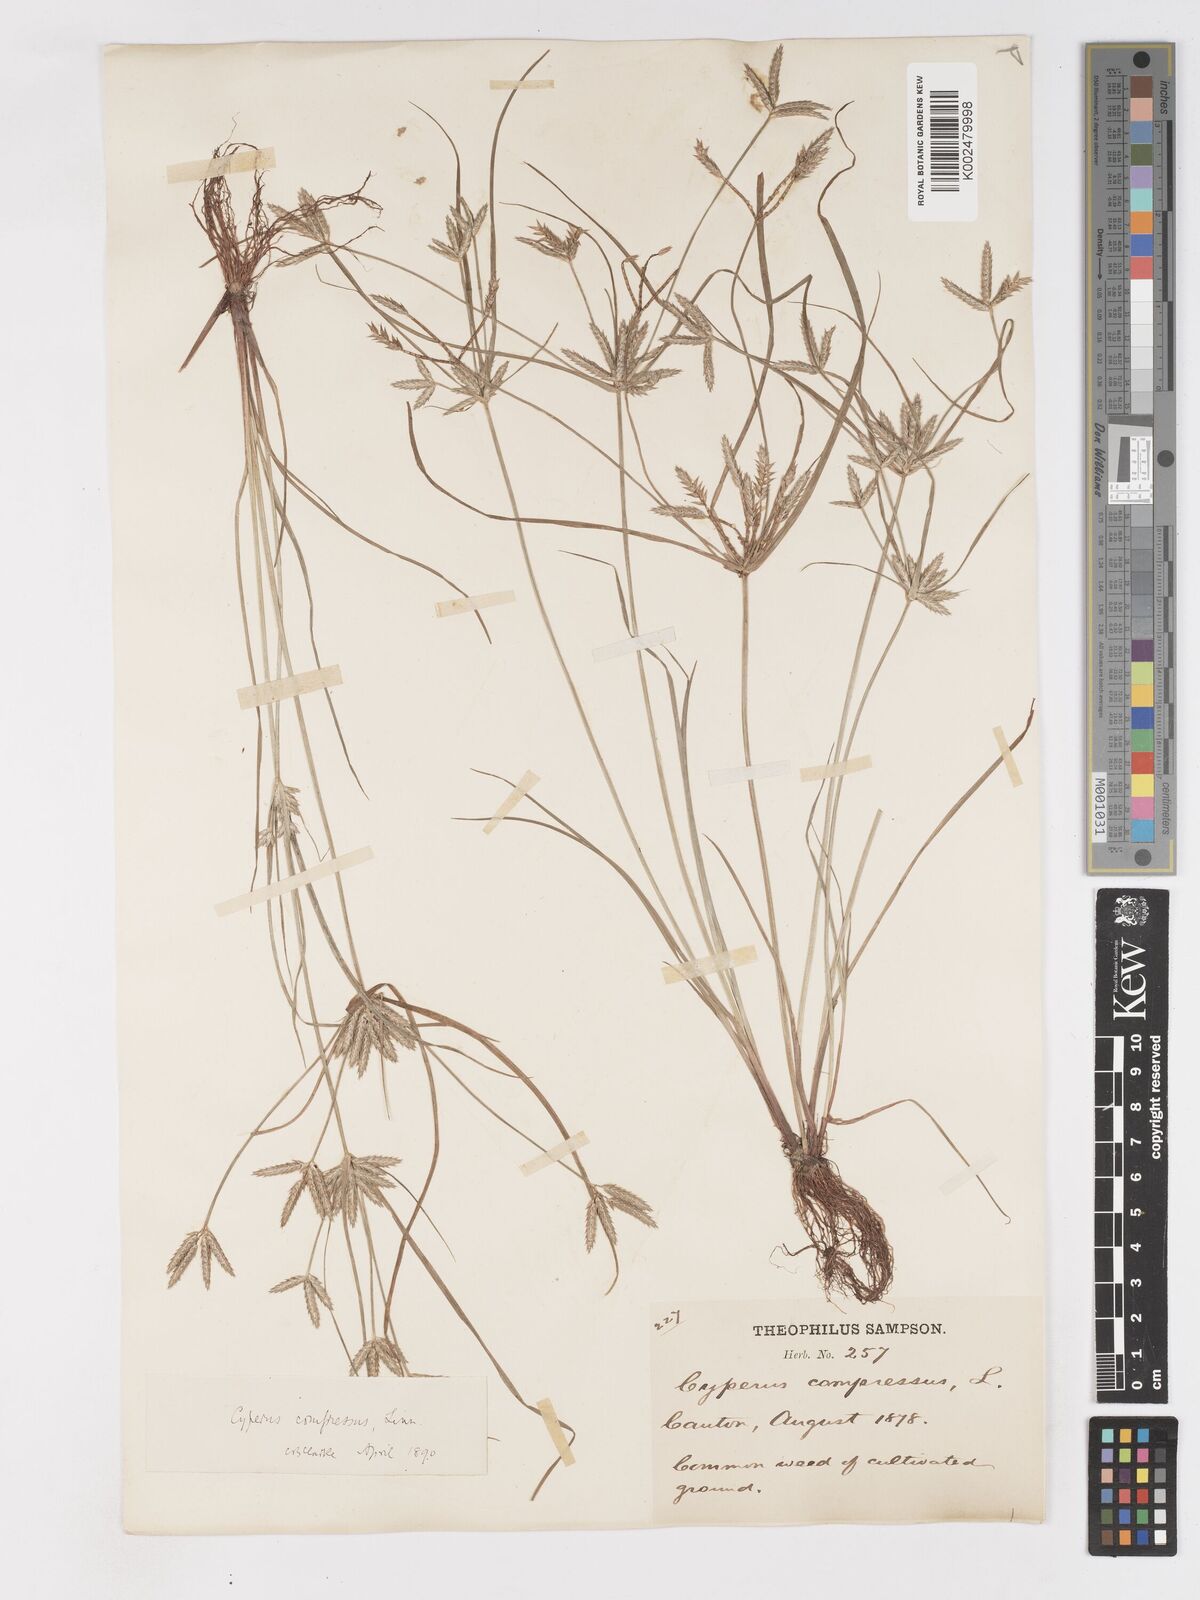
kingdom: Plantae
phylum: Tracheophyta
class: Liliopsida
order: Poales
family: Cyperaceae
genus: Cyperus
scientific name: Cyperus compressus
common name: Poorland flatsedge
